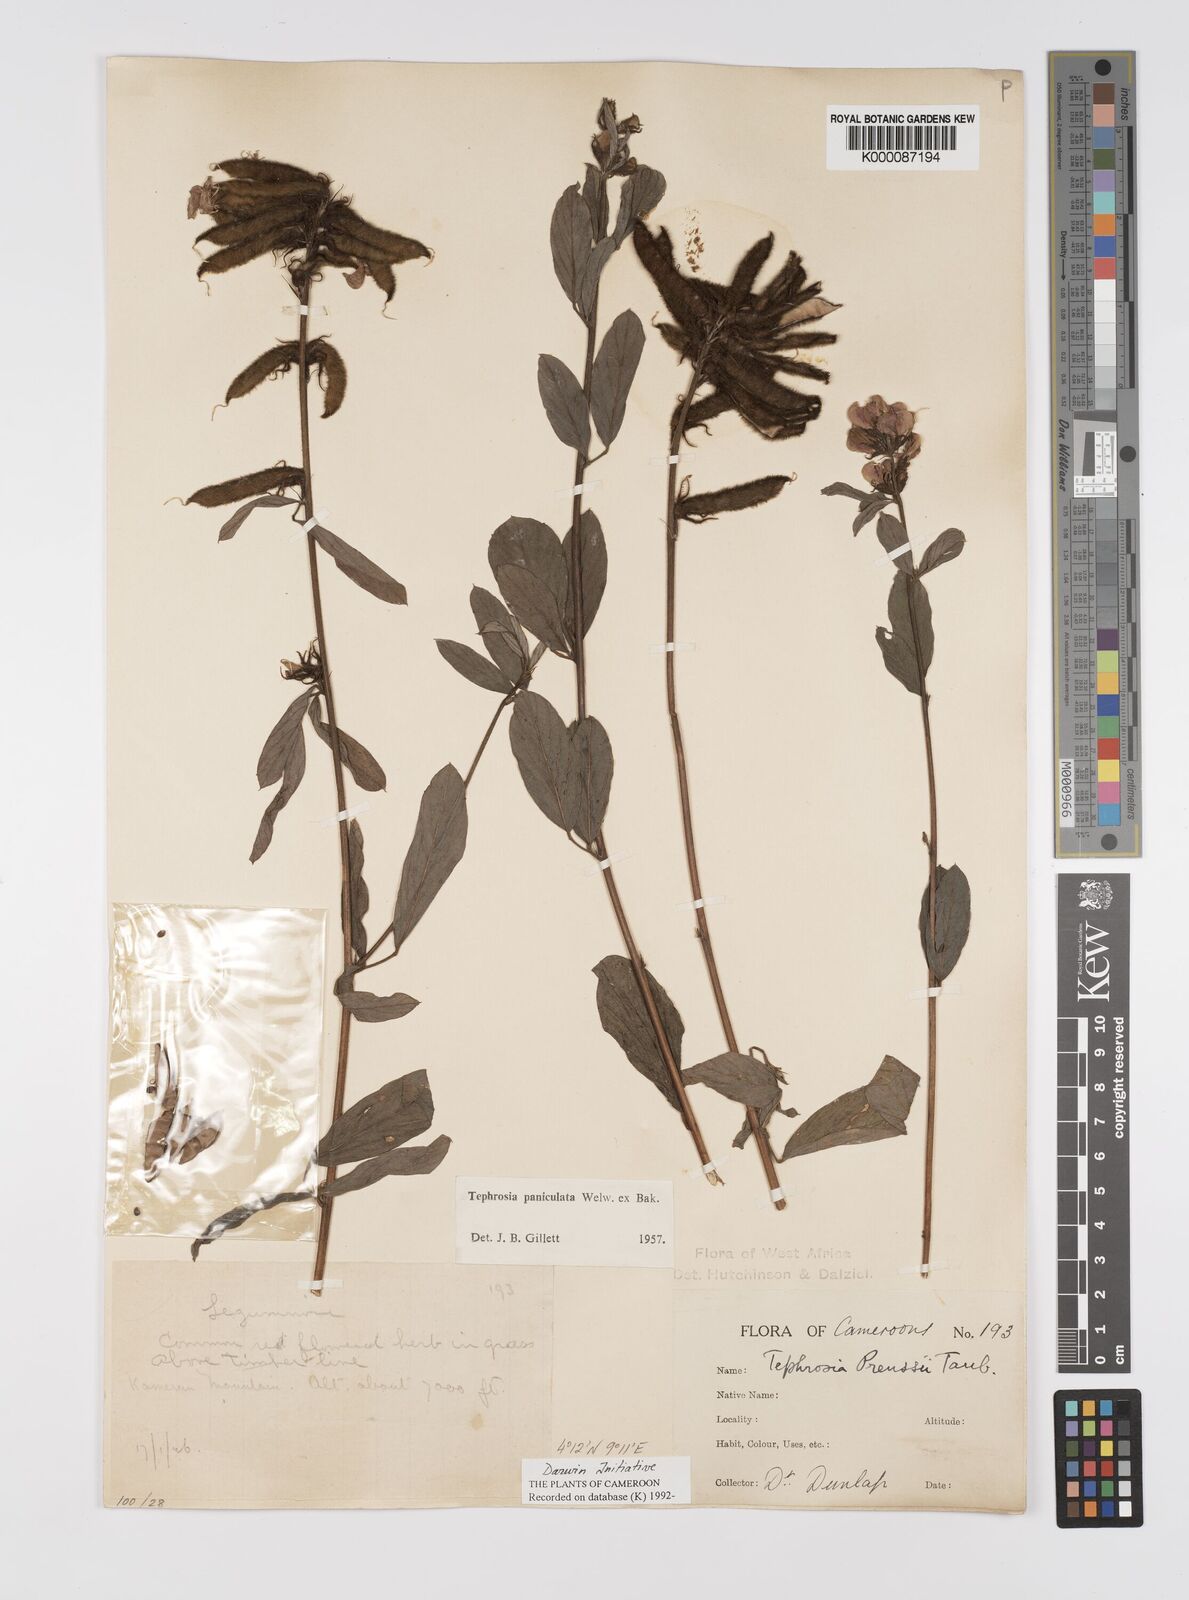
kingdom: Plantae
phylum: Tracheophyta
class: Magnoliopsida
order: Fabales
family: Fabaceae
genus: Tephrosia
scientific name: Tephrosia paniculata
